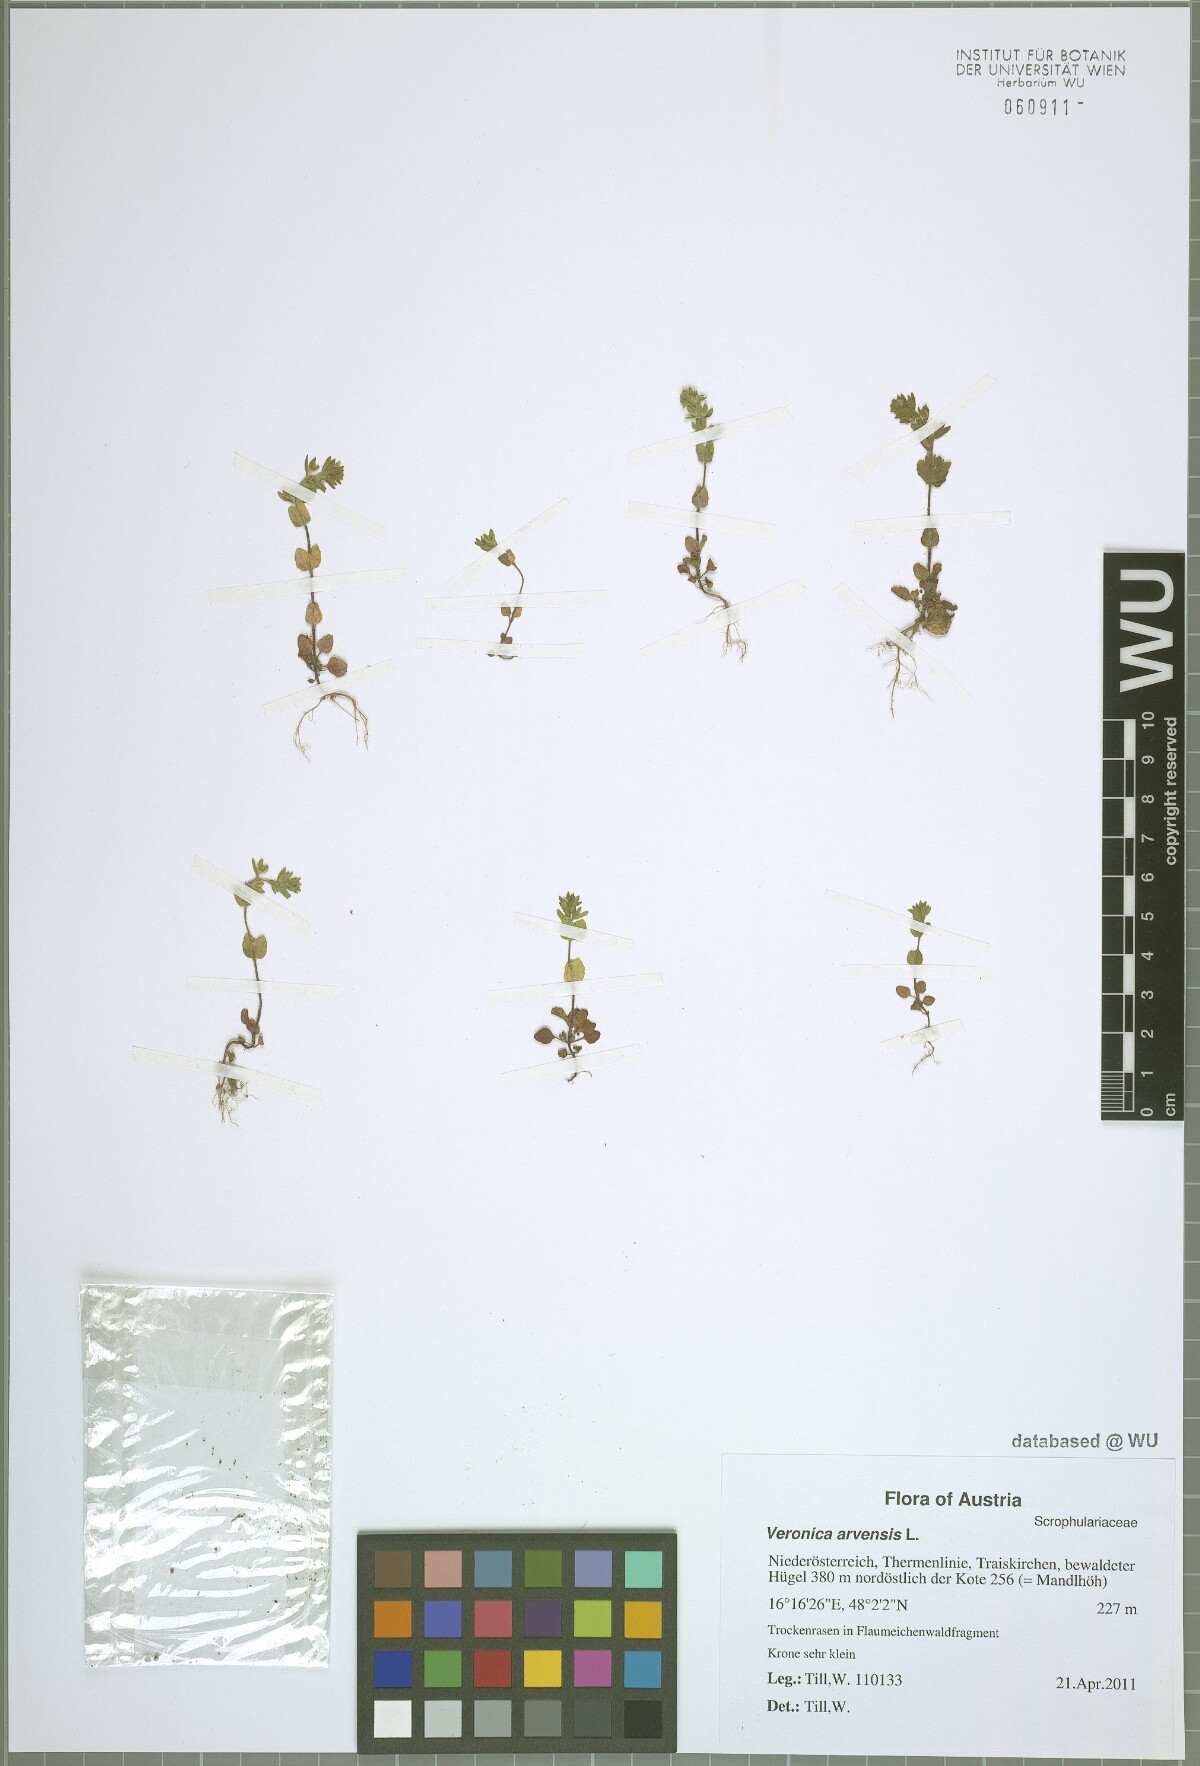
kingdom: Plantae
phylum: Tracheophyta
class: Magnoliopsida
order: Lamiales
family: Plantaginaceae
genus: Veronica
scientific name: Veronica arvensis
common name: Corn speedwell
